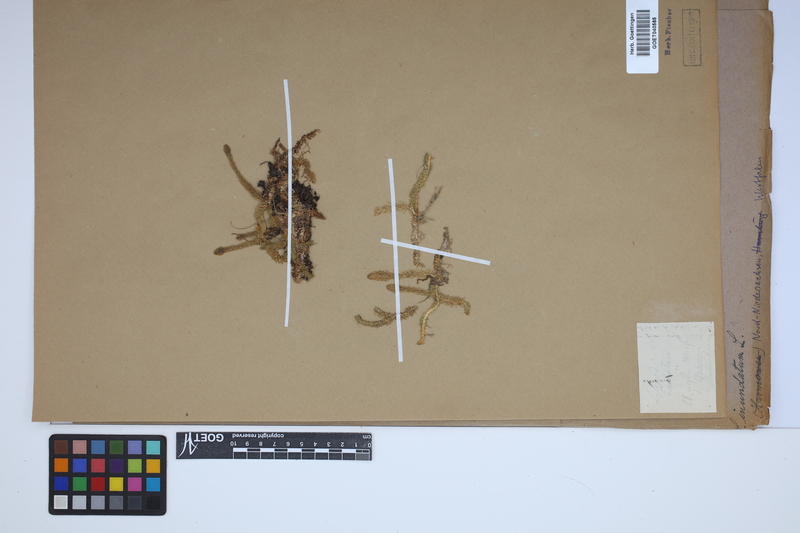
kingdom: Plantae
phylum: Tracheophyta
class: Lycopodiopsida
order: Lycopodiales
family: Lycopodiaceae
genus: Lycopodiella
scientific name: Lycopodiella inundata
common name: Marsh clubmoss
